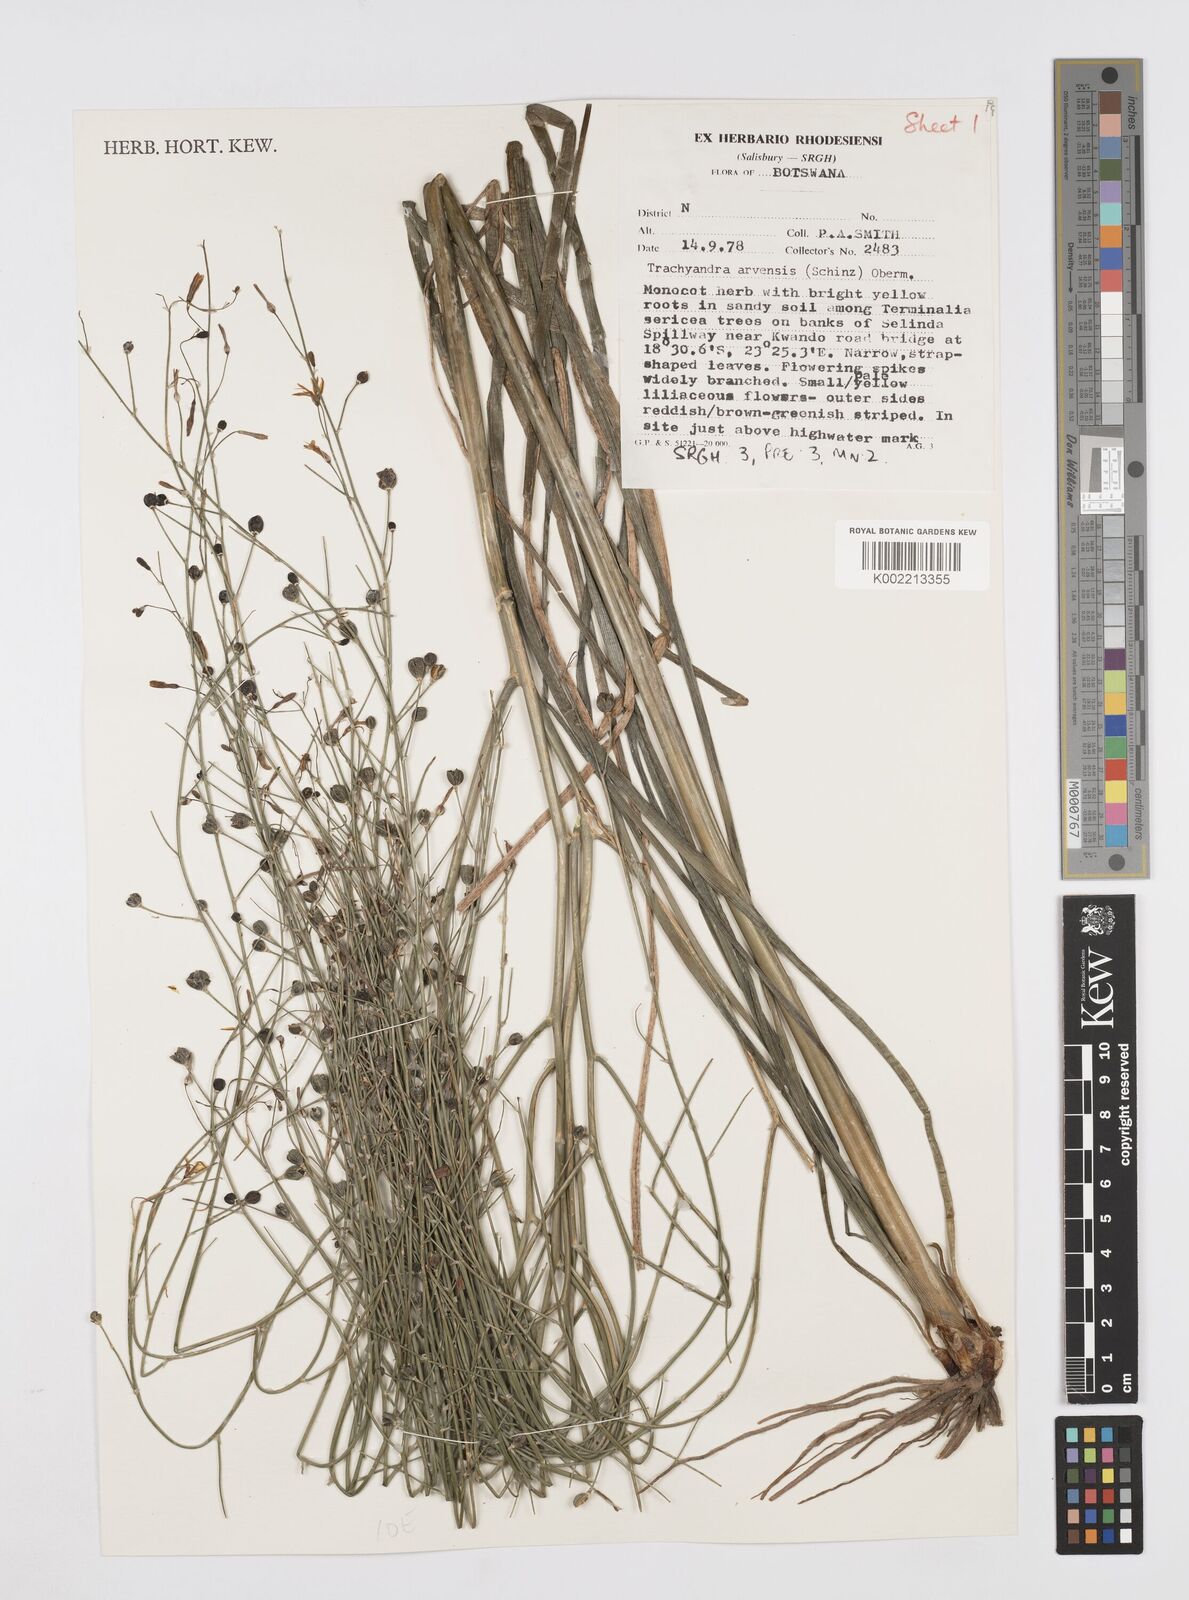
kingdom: Plantae
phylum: Tracheophyta
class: Liliopsida
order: Asparagales
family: Asphodelaceae
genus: Trachyandra
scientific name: Trachyandra arvensis
